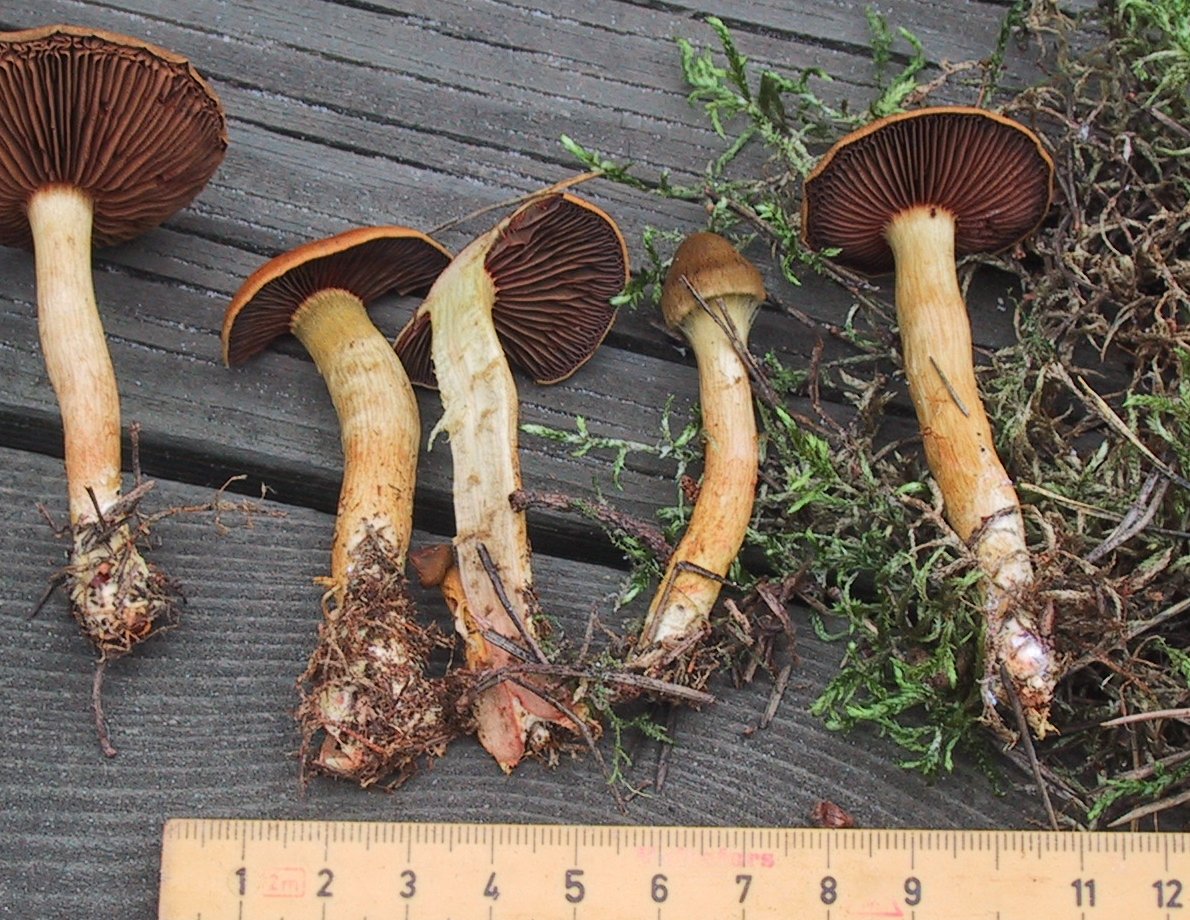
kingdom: Fungi
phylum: Basidiomycota
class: Agaricomycetes
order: Agaricales
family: Cortinariaceae
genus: Cortinarius
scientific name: Cortinarius
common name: cinnoberbladet slørhat
